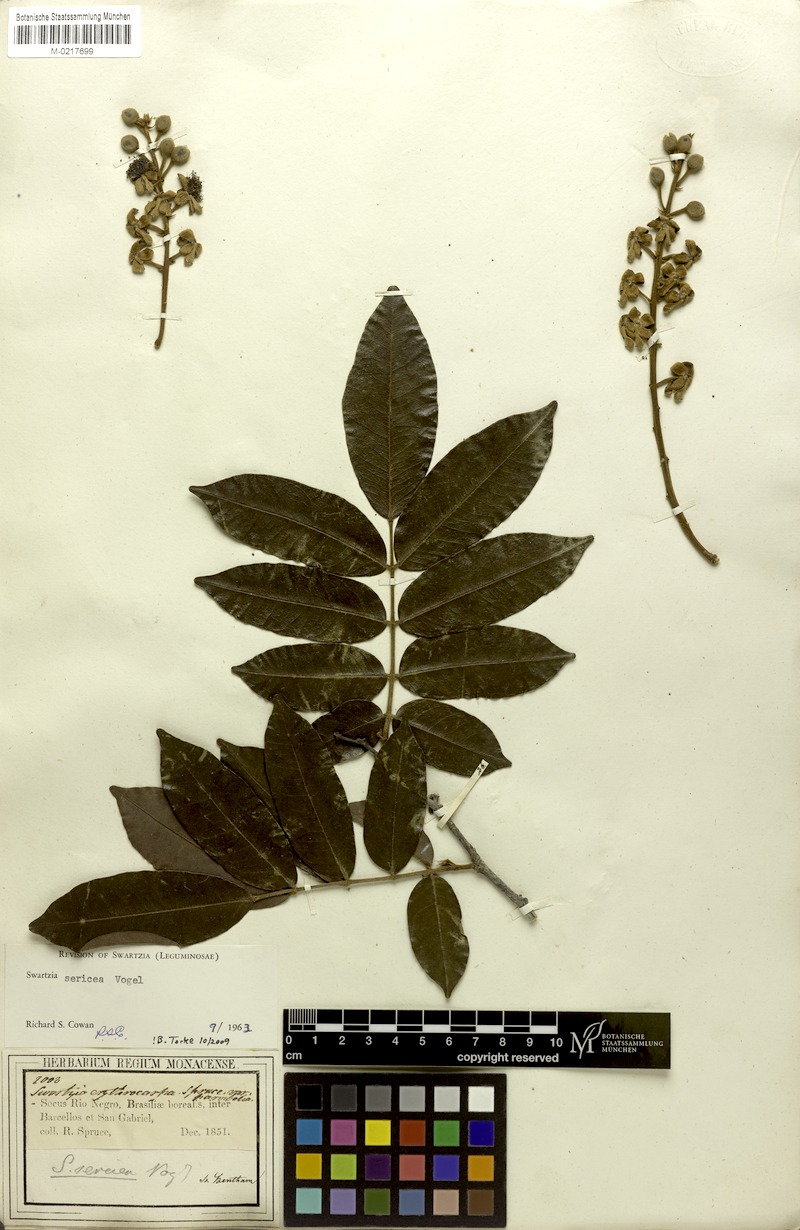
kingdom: Plantae
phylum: Tracheophyta
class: Magnoliopsida
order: Fabales
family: Fabaceae
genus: Swartzia
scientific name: Swartzia sericea
